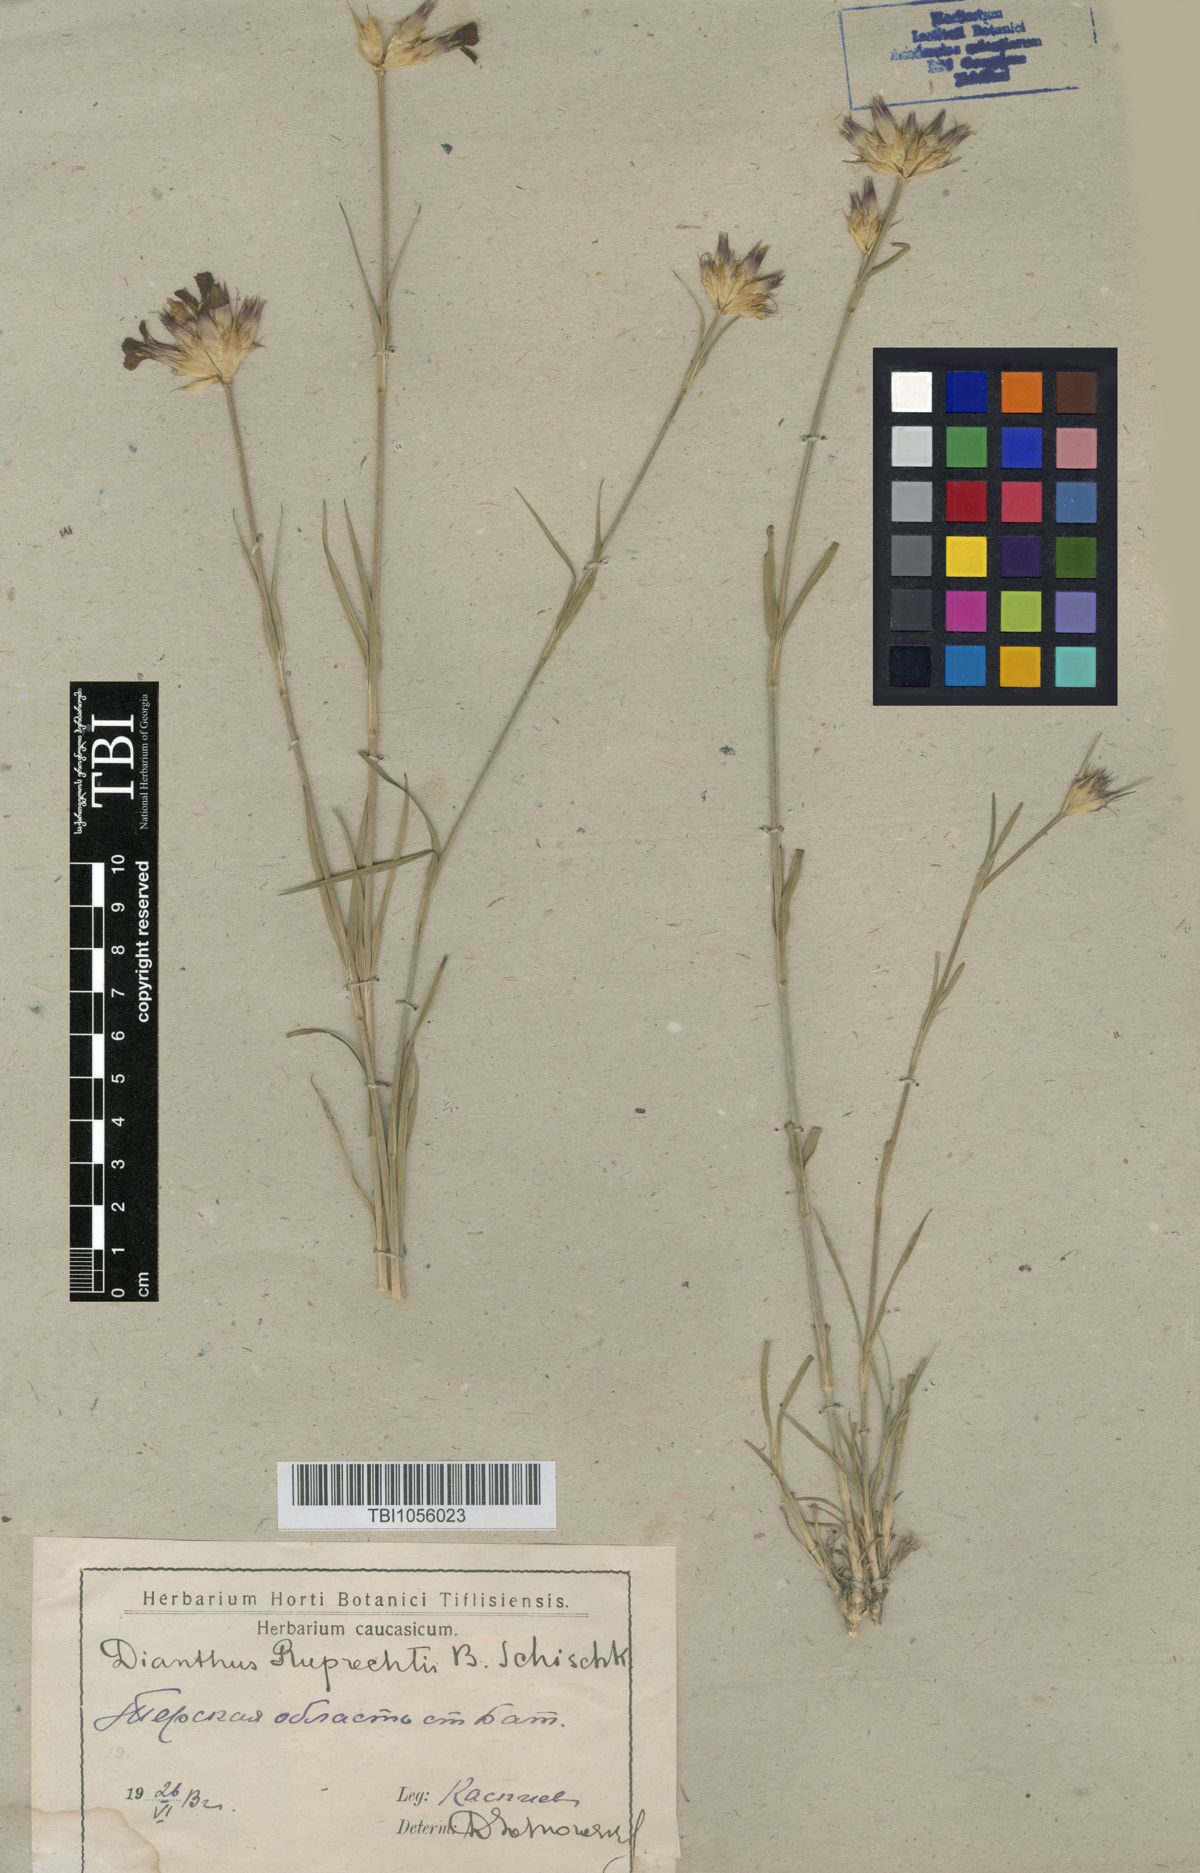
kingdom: Plantae
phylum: Tracheophyta
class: Magnoliopsida
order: Caryophyllales
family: Caryophyllaceae
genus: Dianthus
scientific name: Dianthus ruprechtii
